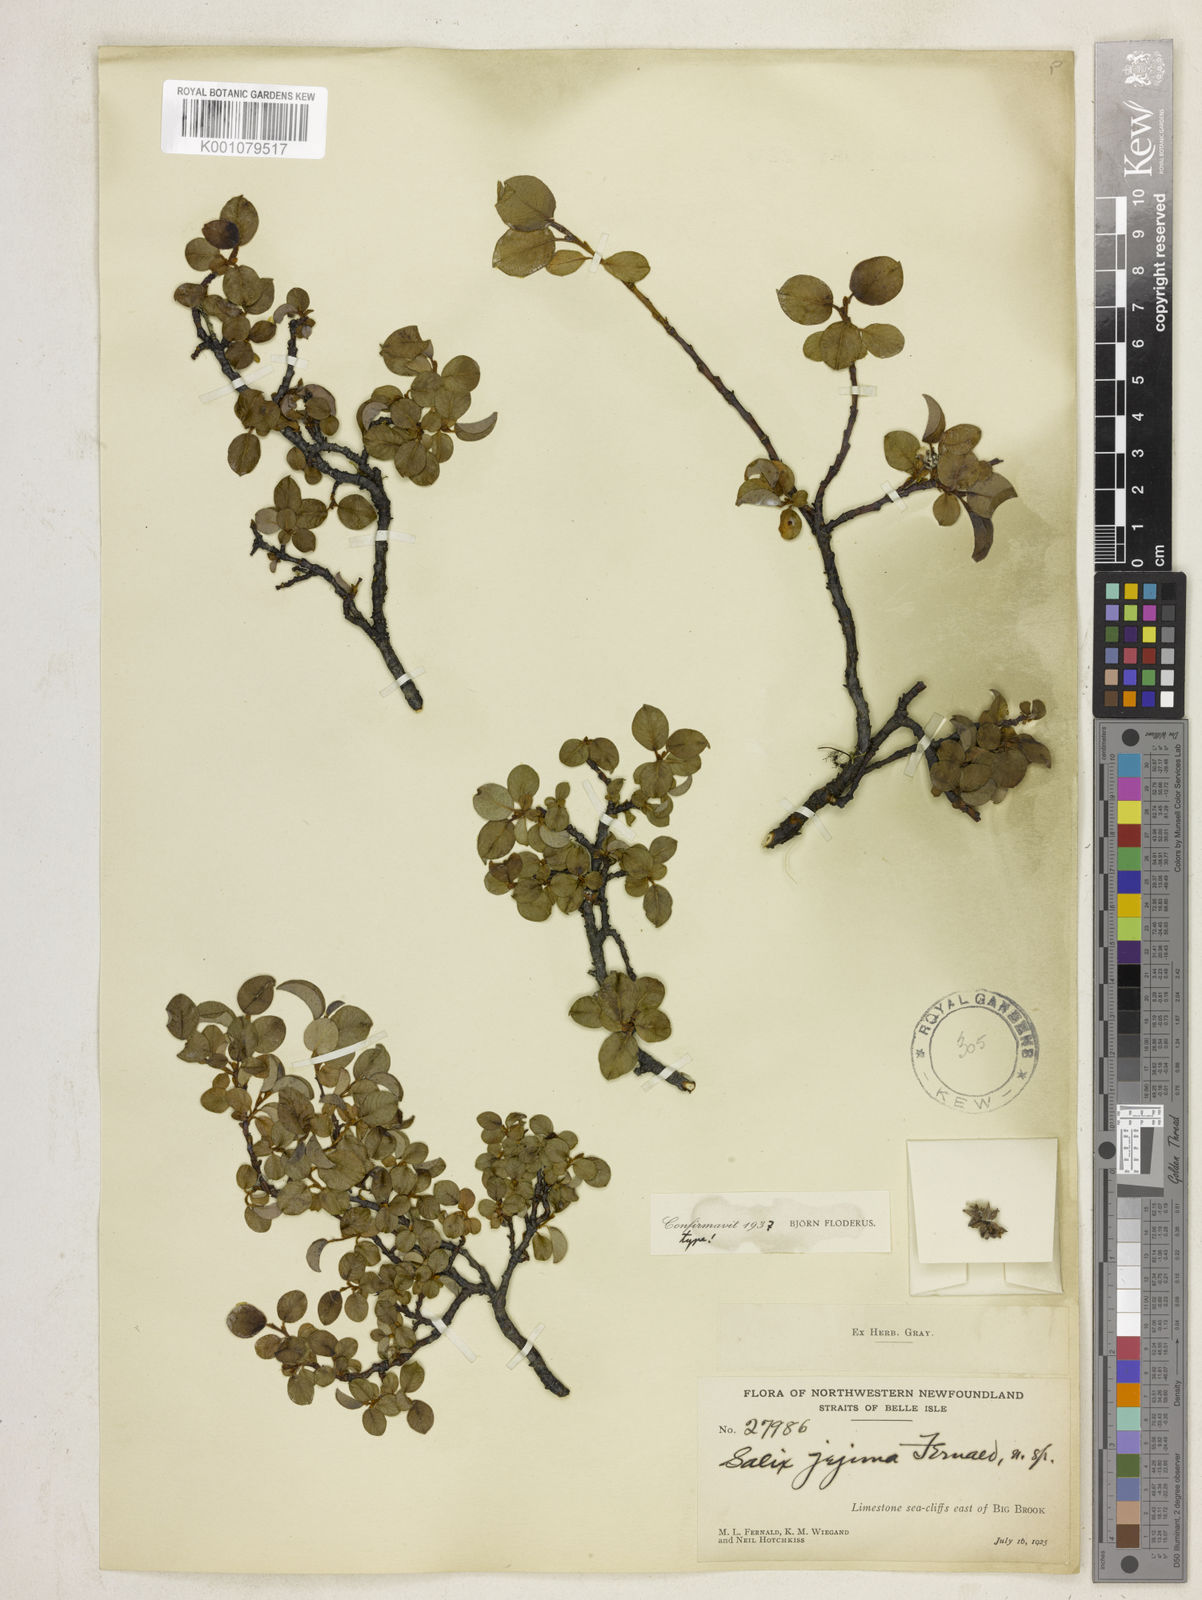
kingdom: Plantae
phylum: Tracheophyta
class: Magnoliopsida
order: Malpighiales
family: Salicaceae
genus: Salix
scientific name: Salix jejuna
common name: Belle isle dwarf willow
